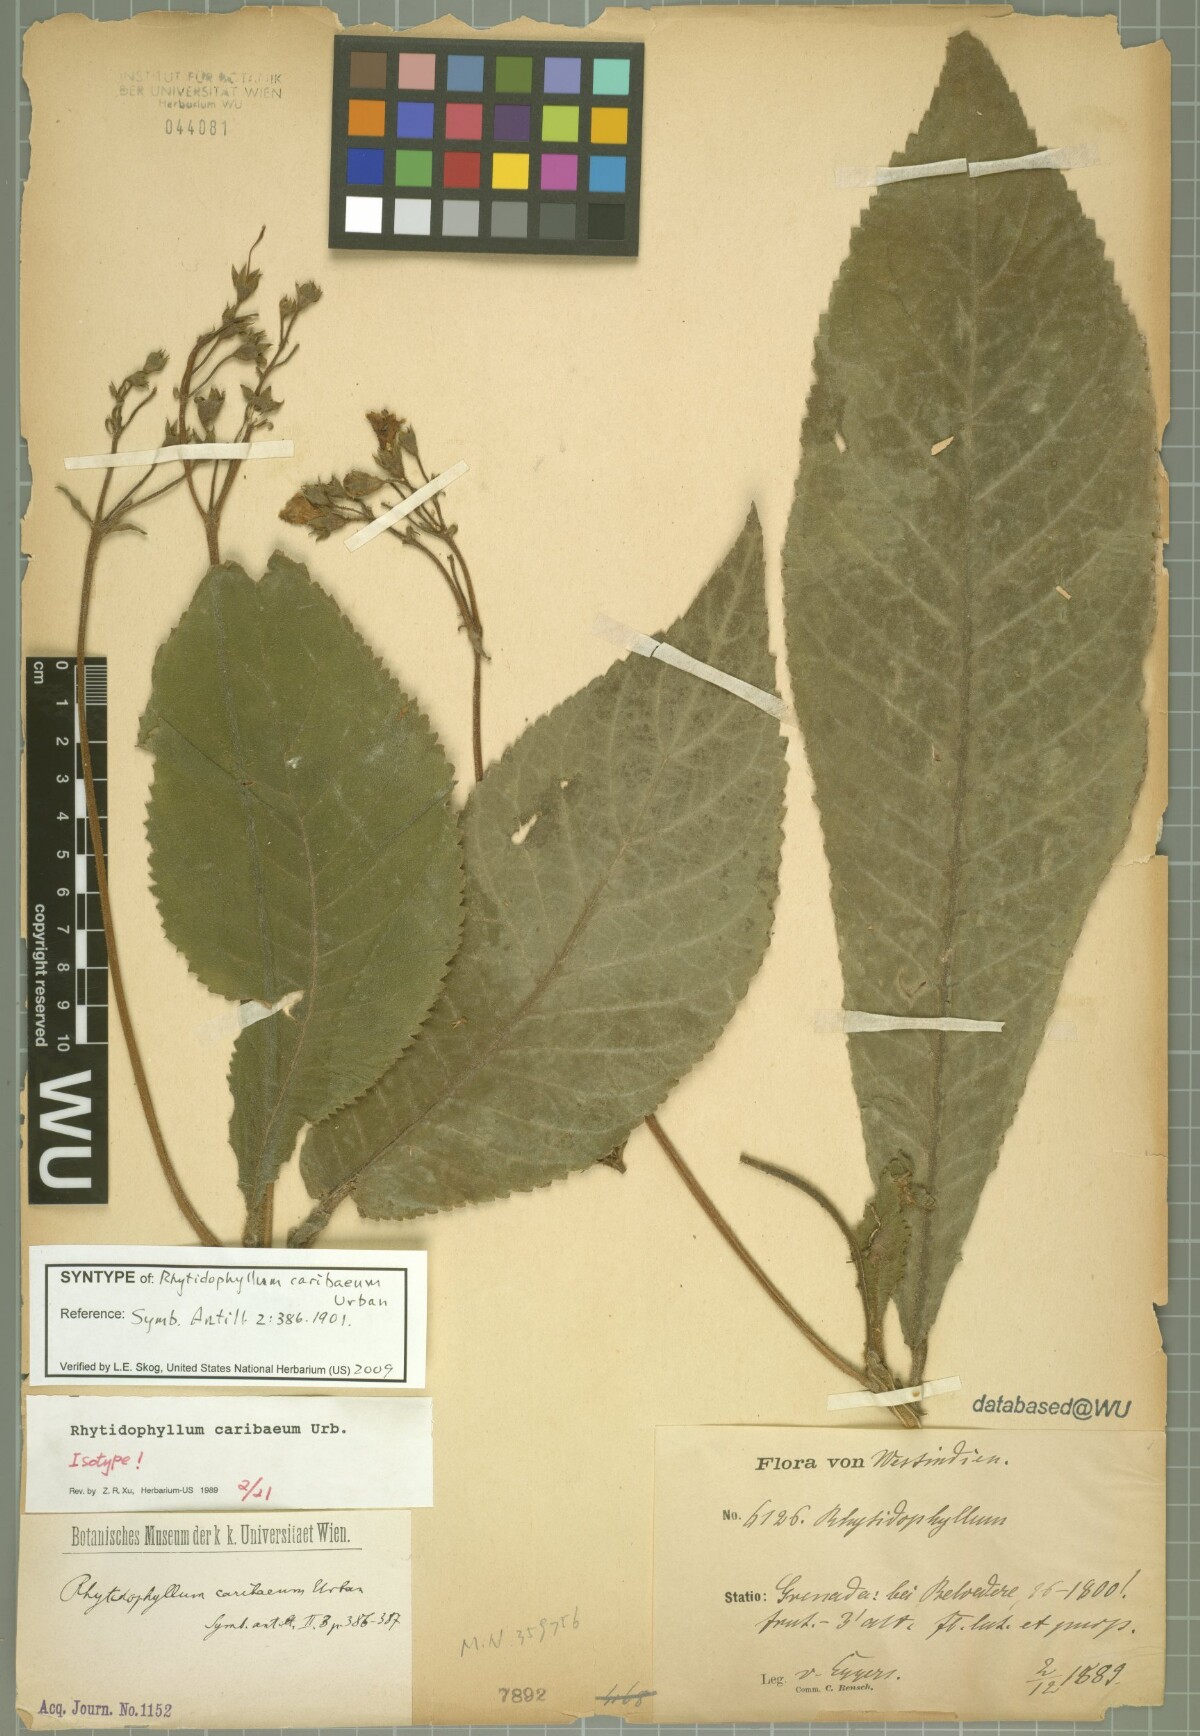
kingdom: Plantae
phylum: Tracheophyta
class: Magnoliopsida
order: Lamiales
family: Gesneriaceae
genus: Rhytidophyllum
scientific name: Rhytidophyllum caribaeum
